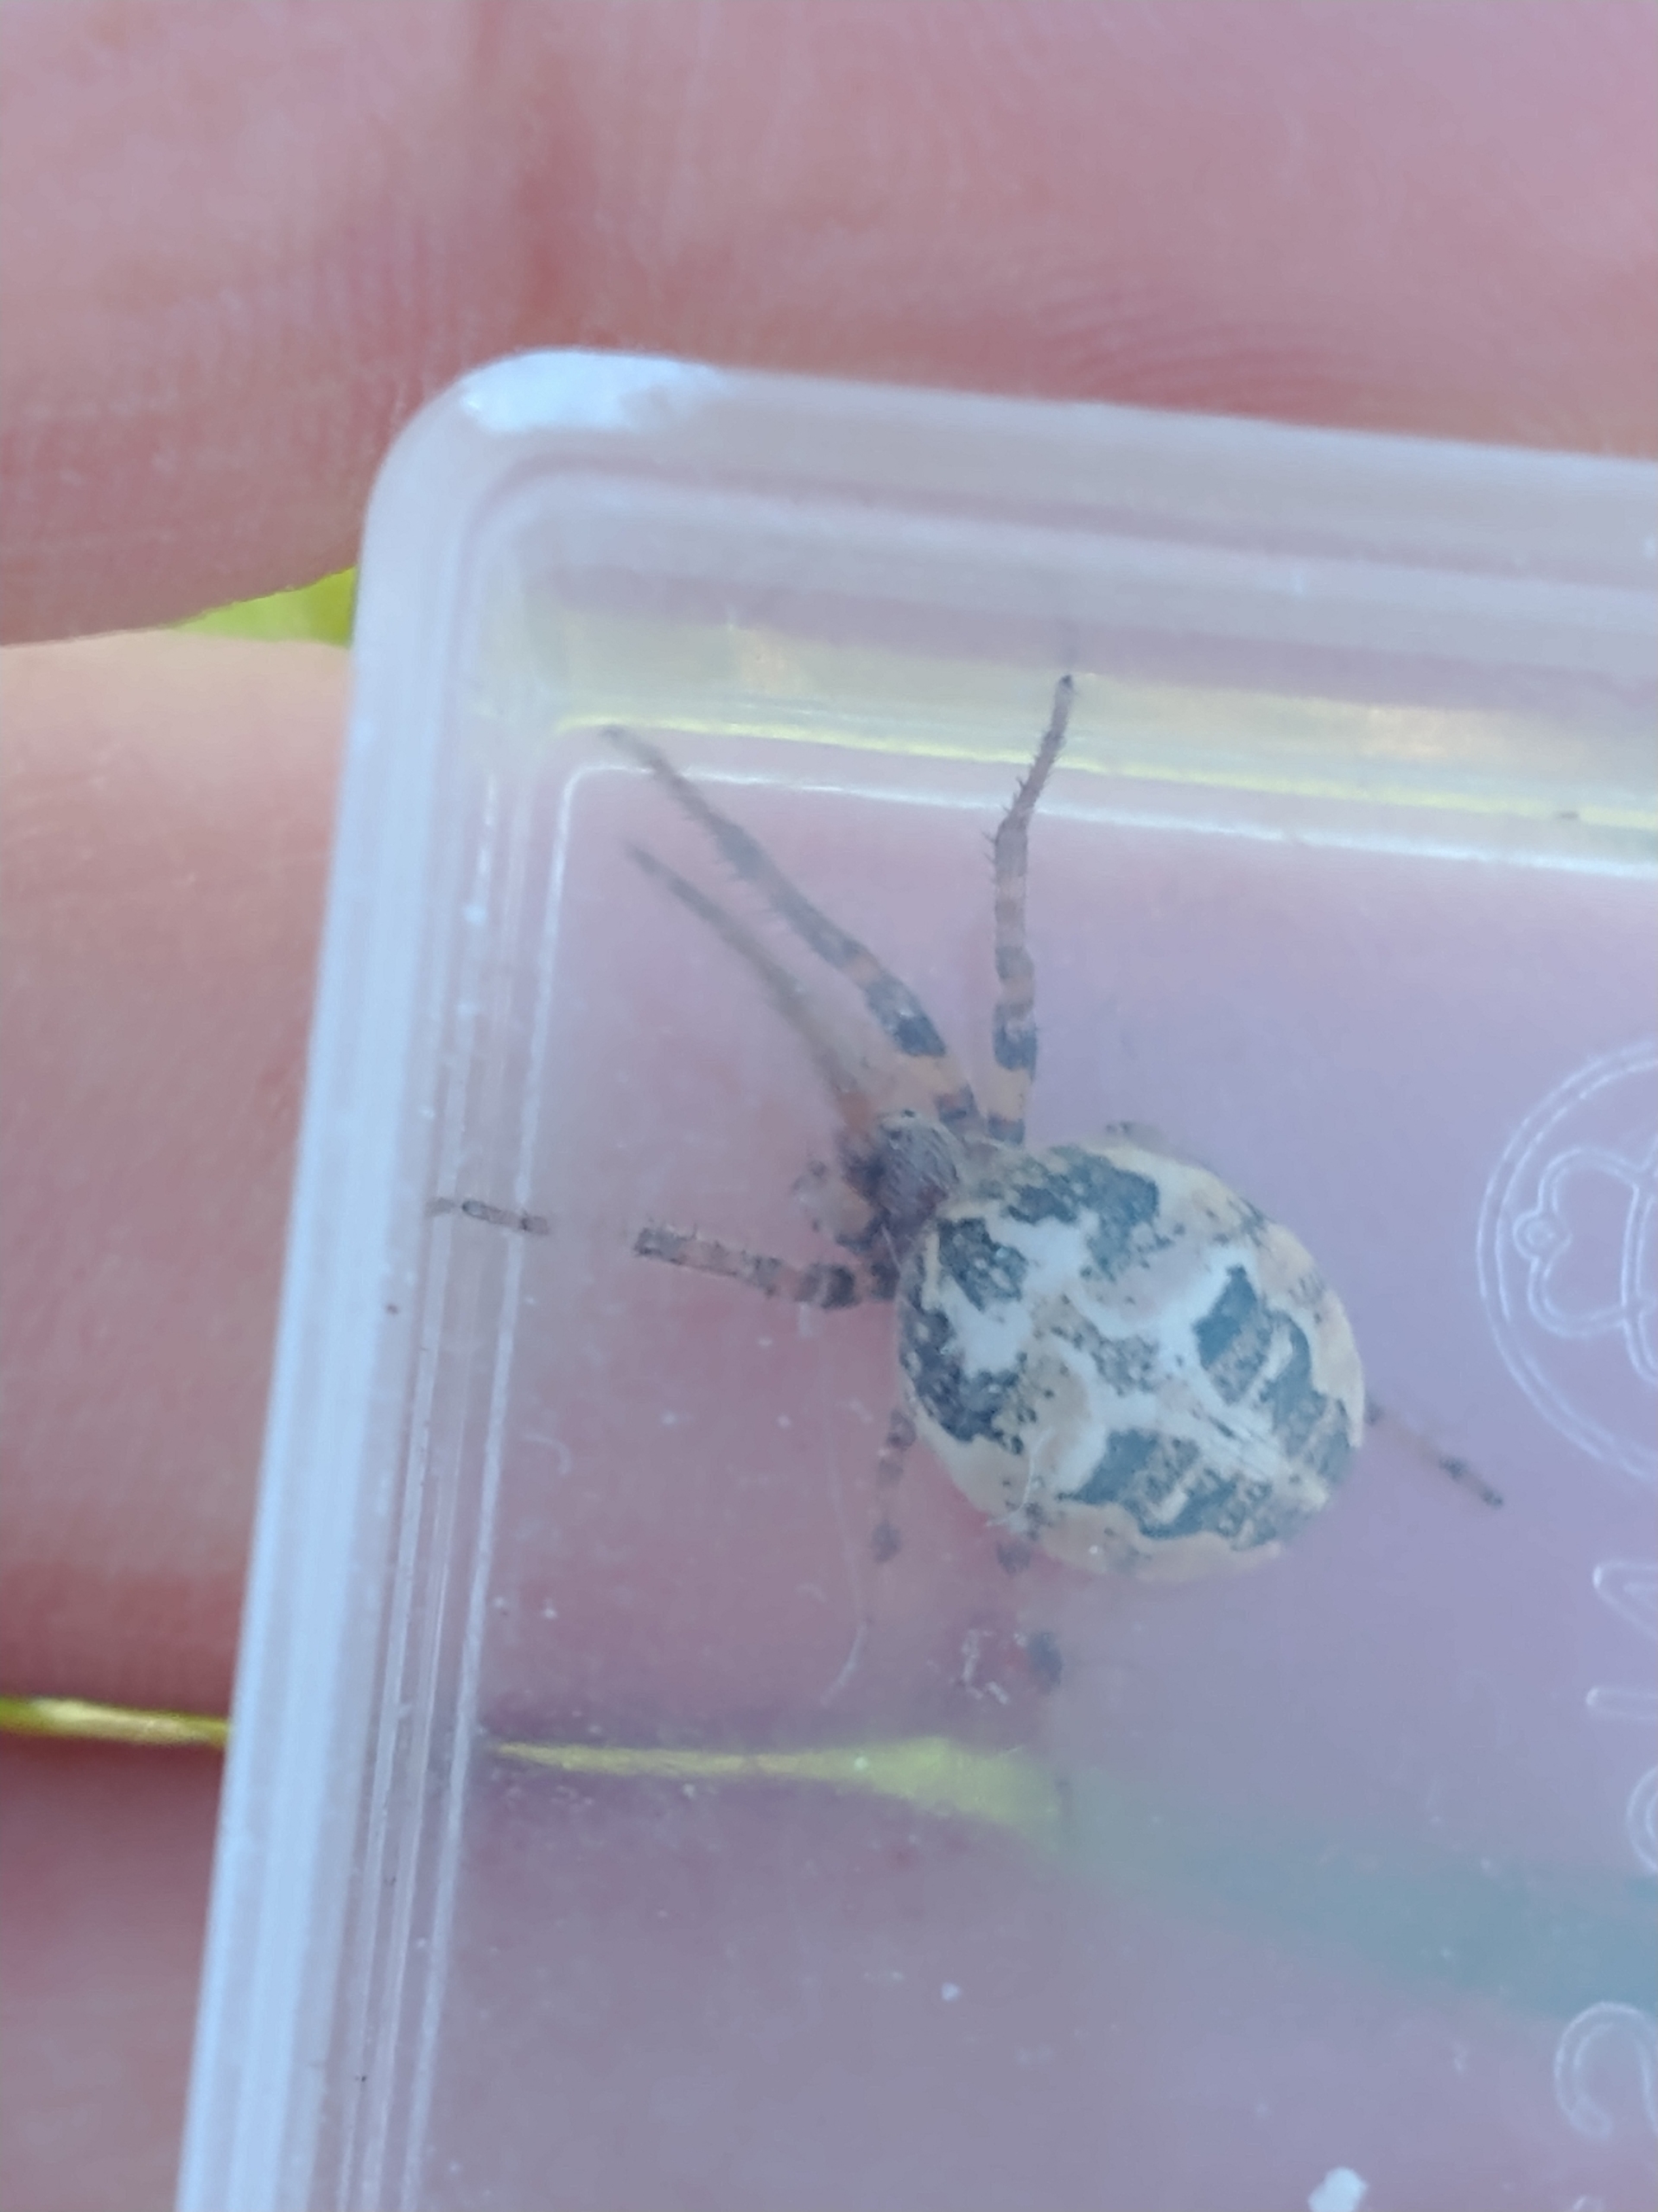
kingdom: Animalia
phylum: Arthropoda
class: Arachnida
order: Araneae
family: Araneidae
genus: Larinioides
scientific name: Larinioides cornutus
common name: Sivhjulspinder
